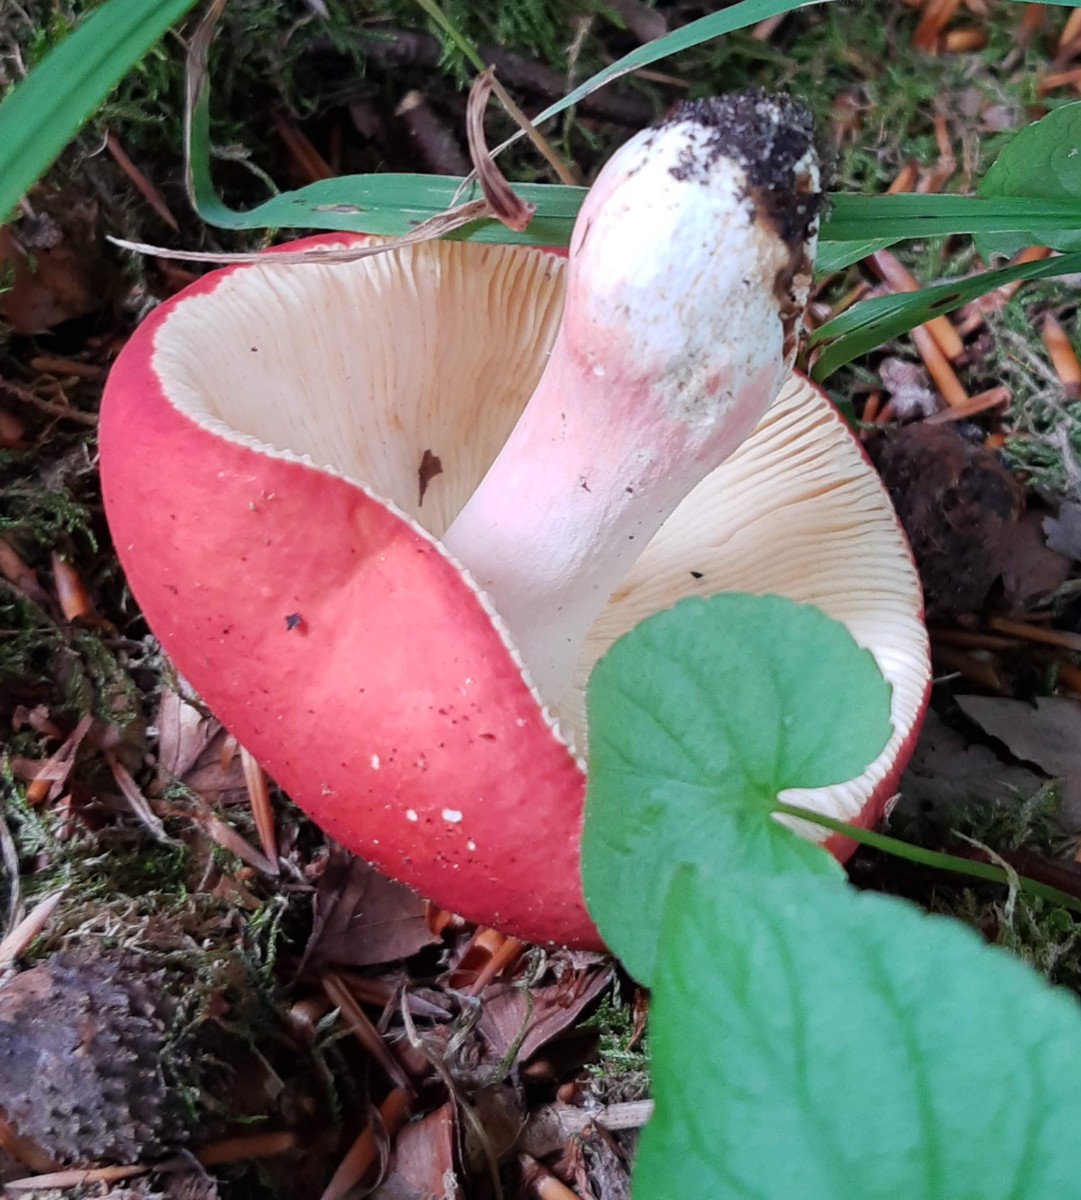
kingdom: Fungi
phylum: Basidiomycota
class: Agaricomycetes
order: Russulales
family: Russulaceae
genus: Russula
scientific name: Russula rosea
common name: fastkødet skørhat
